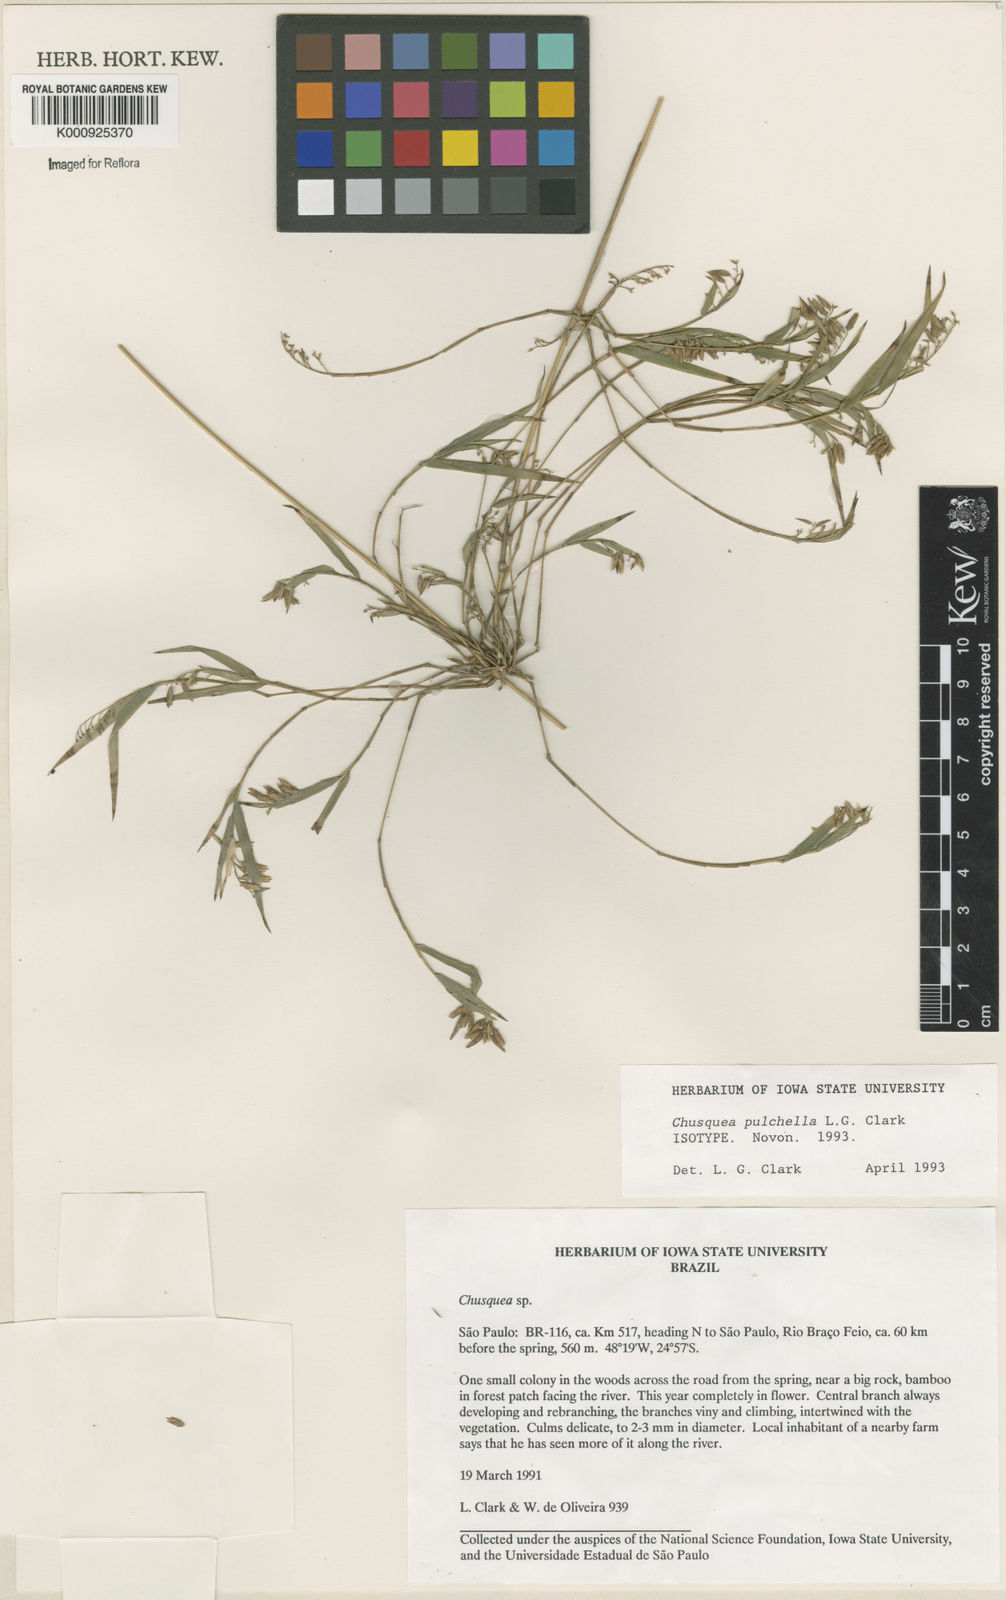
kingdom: Plantae
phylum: Tracheophyta
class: Liliopsida
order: Poales
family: Poaceae
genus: Chusquea
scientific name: Chusquea pulchella
